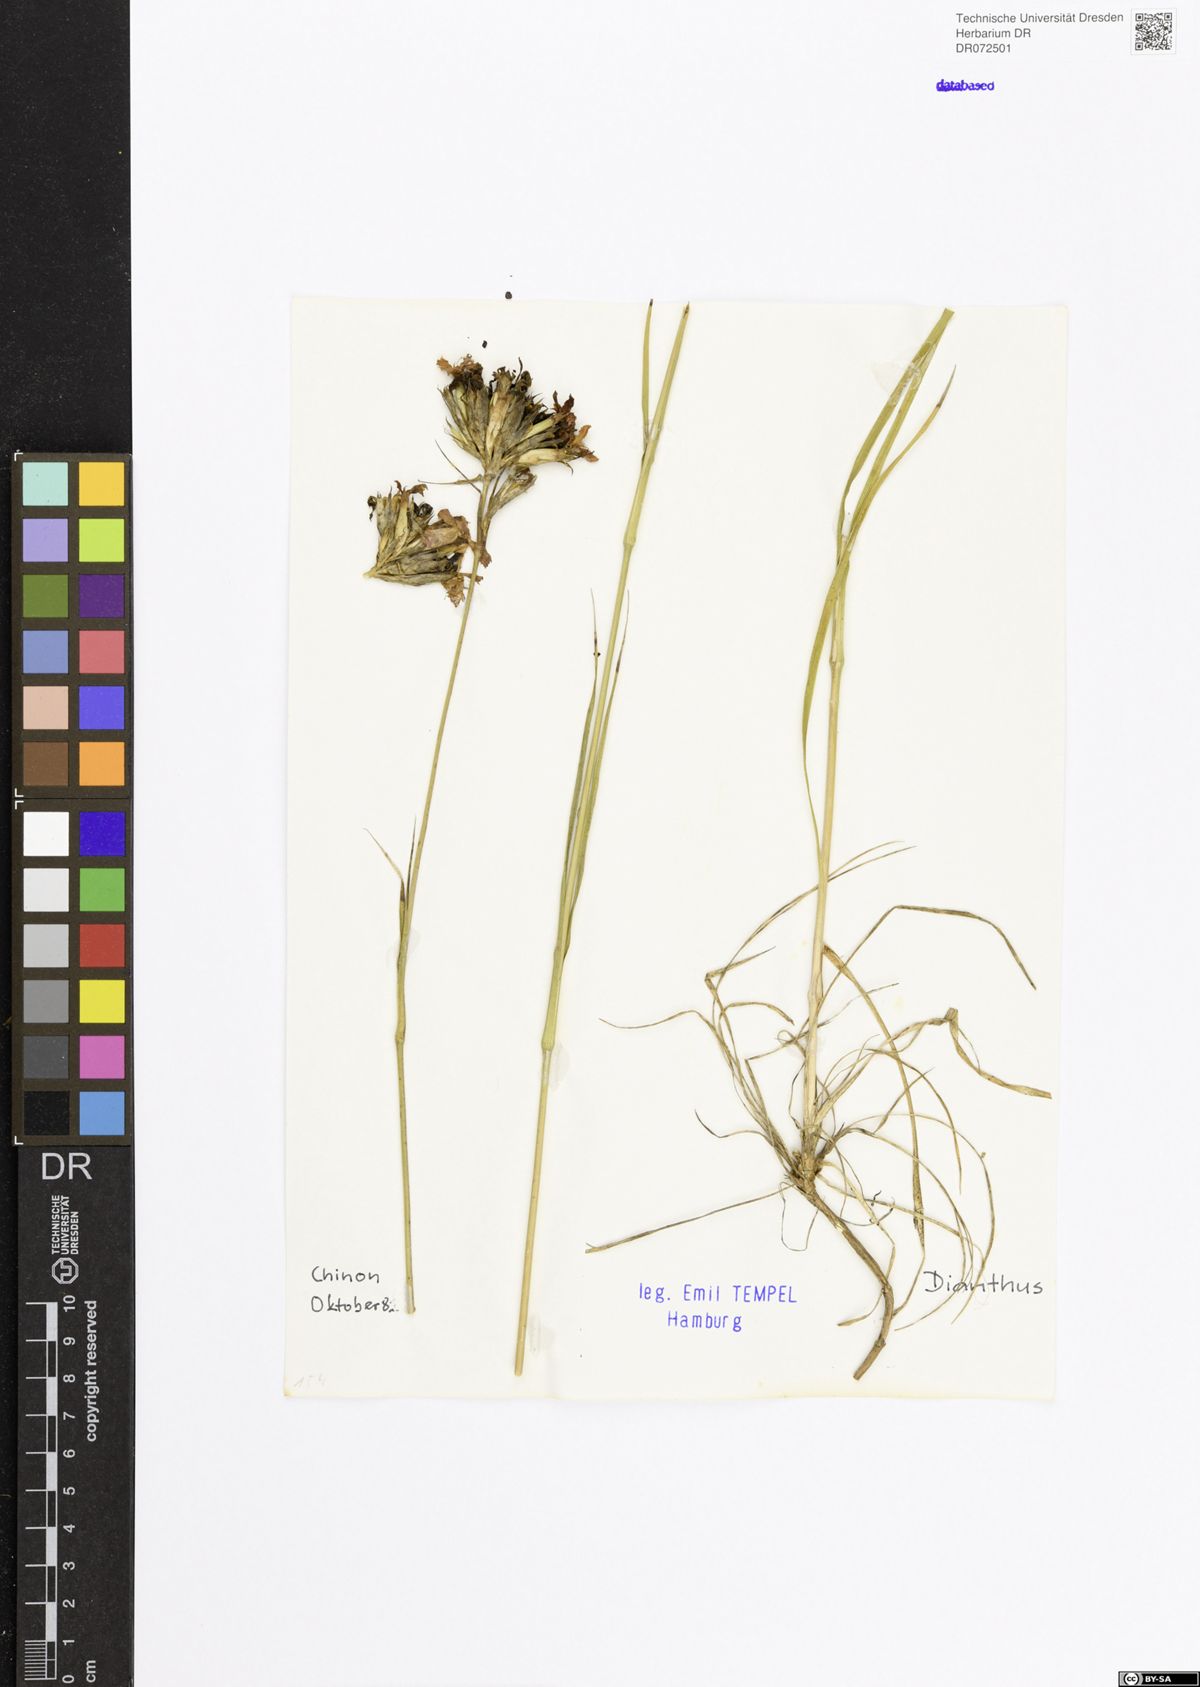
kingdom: Plantae
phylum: Tracheophyta
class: Magnoliopsida
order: Caryophyllales
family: Caryophyllaceae
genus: Dianthus
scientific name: Dianthus
